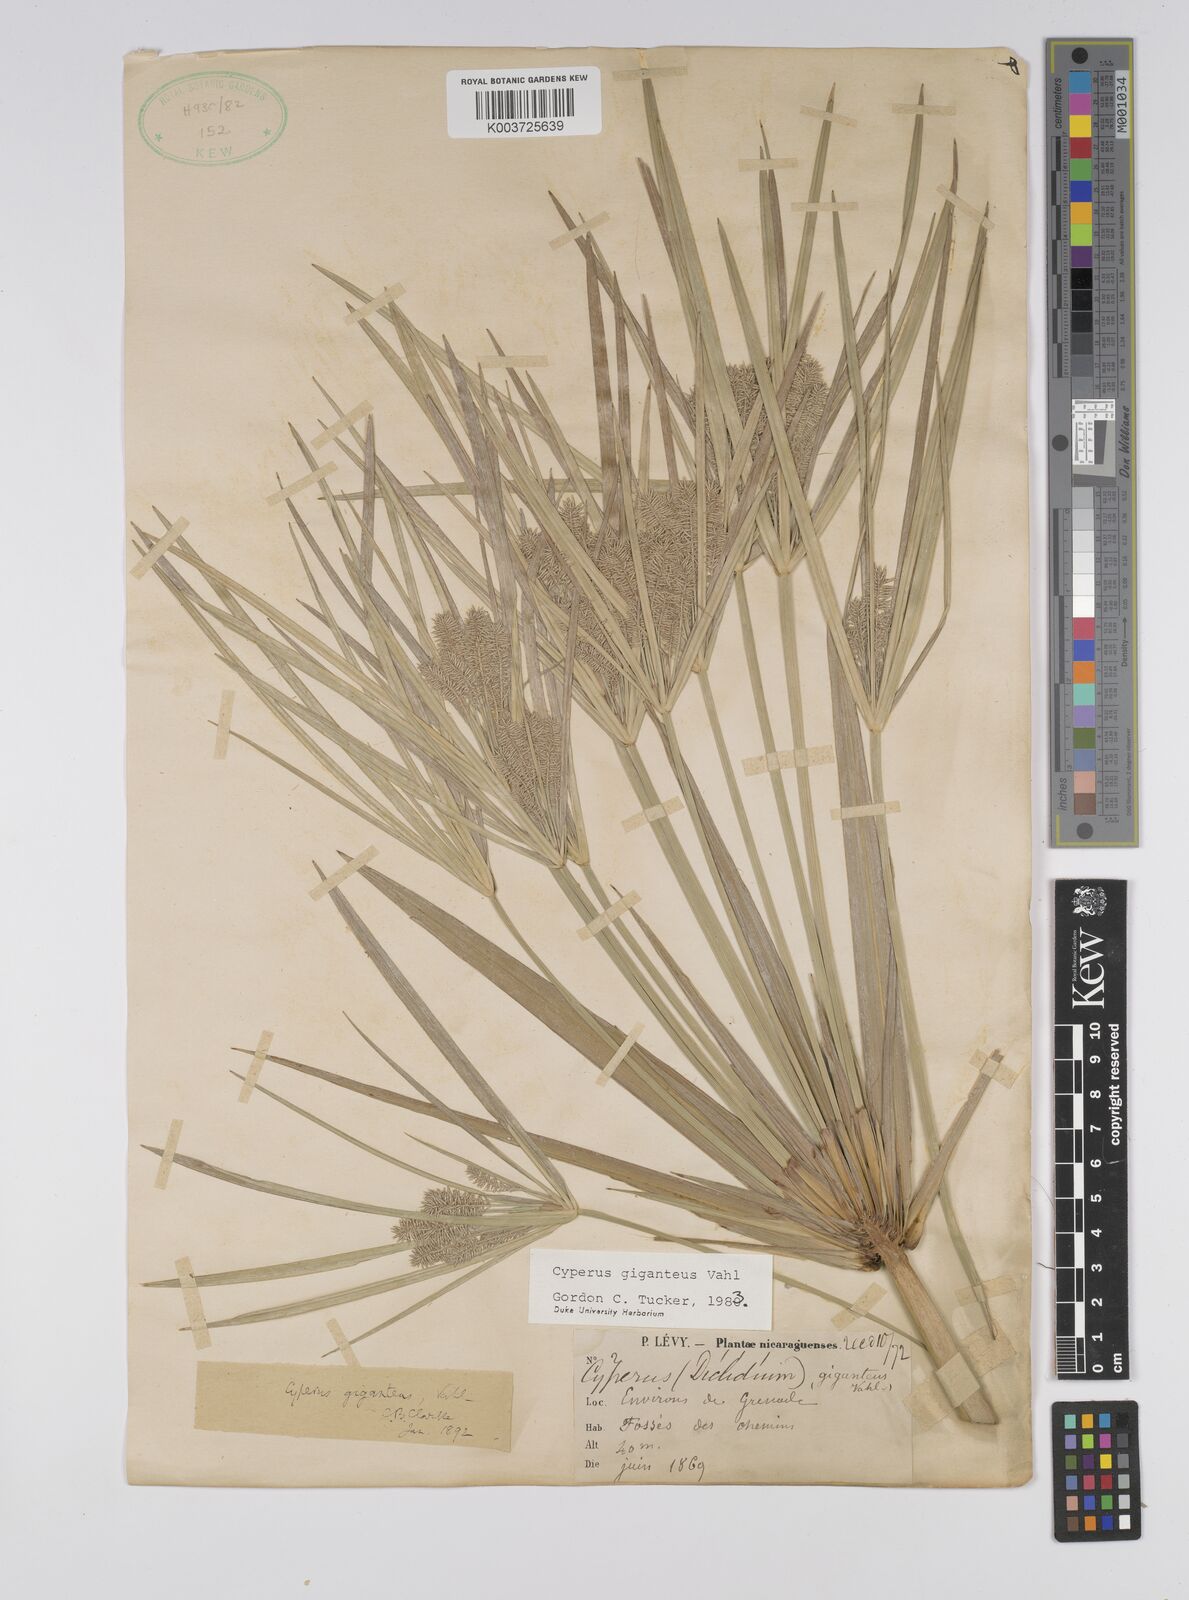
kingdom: Plantae
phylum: Tracheophyta
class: Liliopsida
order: Poales
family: Cyperaceae
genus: Cyperus
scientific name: Cyperus giganteus
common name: Giant flat sedge
